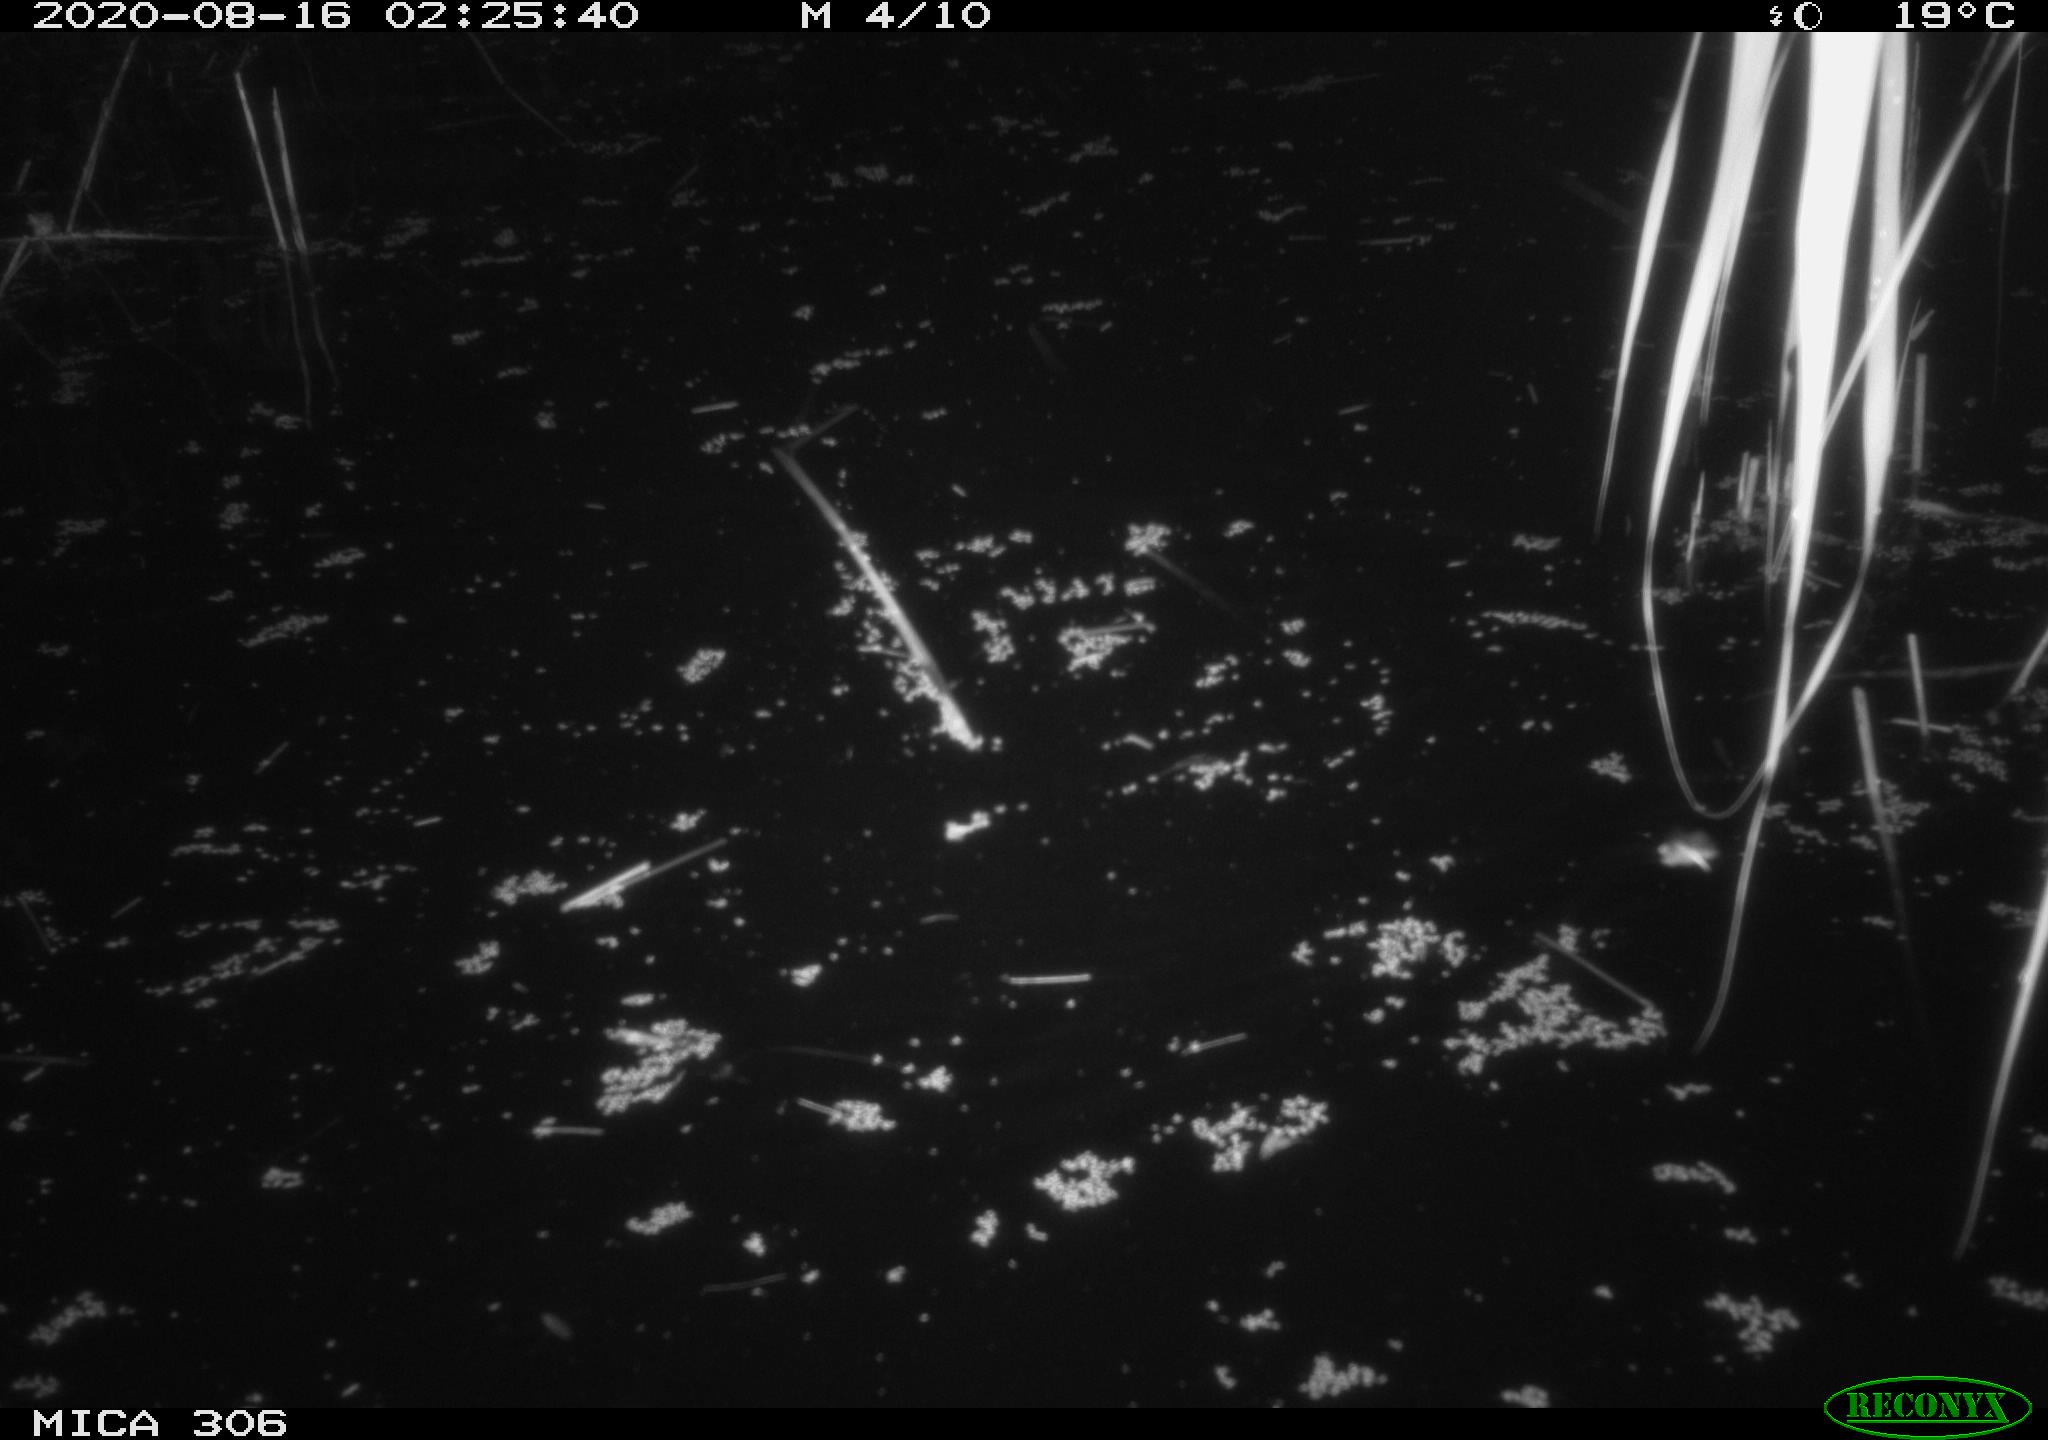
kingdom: Animalia
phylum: Chordata
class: Mammalia
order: Rodentia
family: Muridae
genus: Rattus
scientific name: Rattus norvegicus
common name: Brown rat
